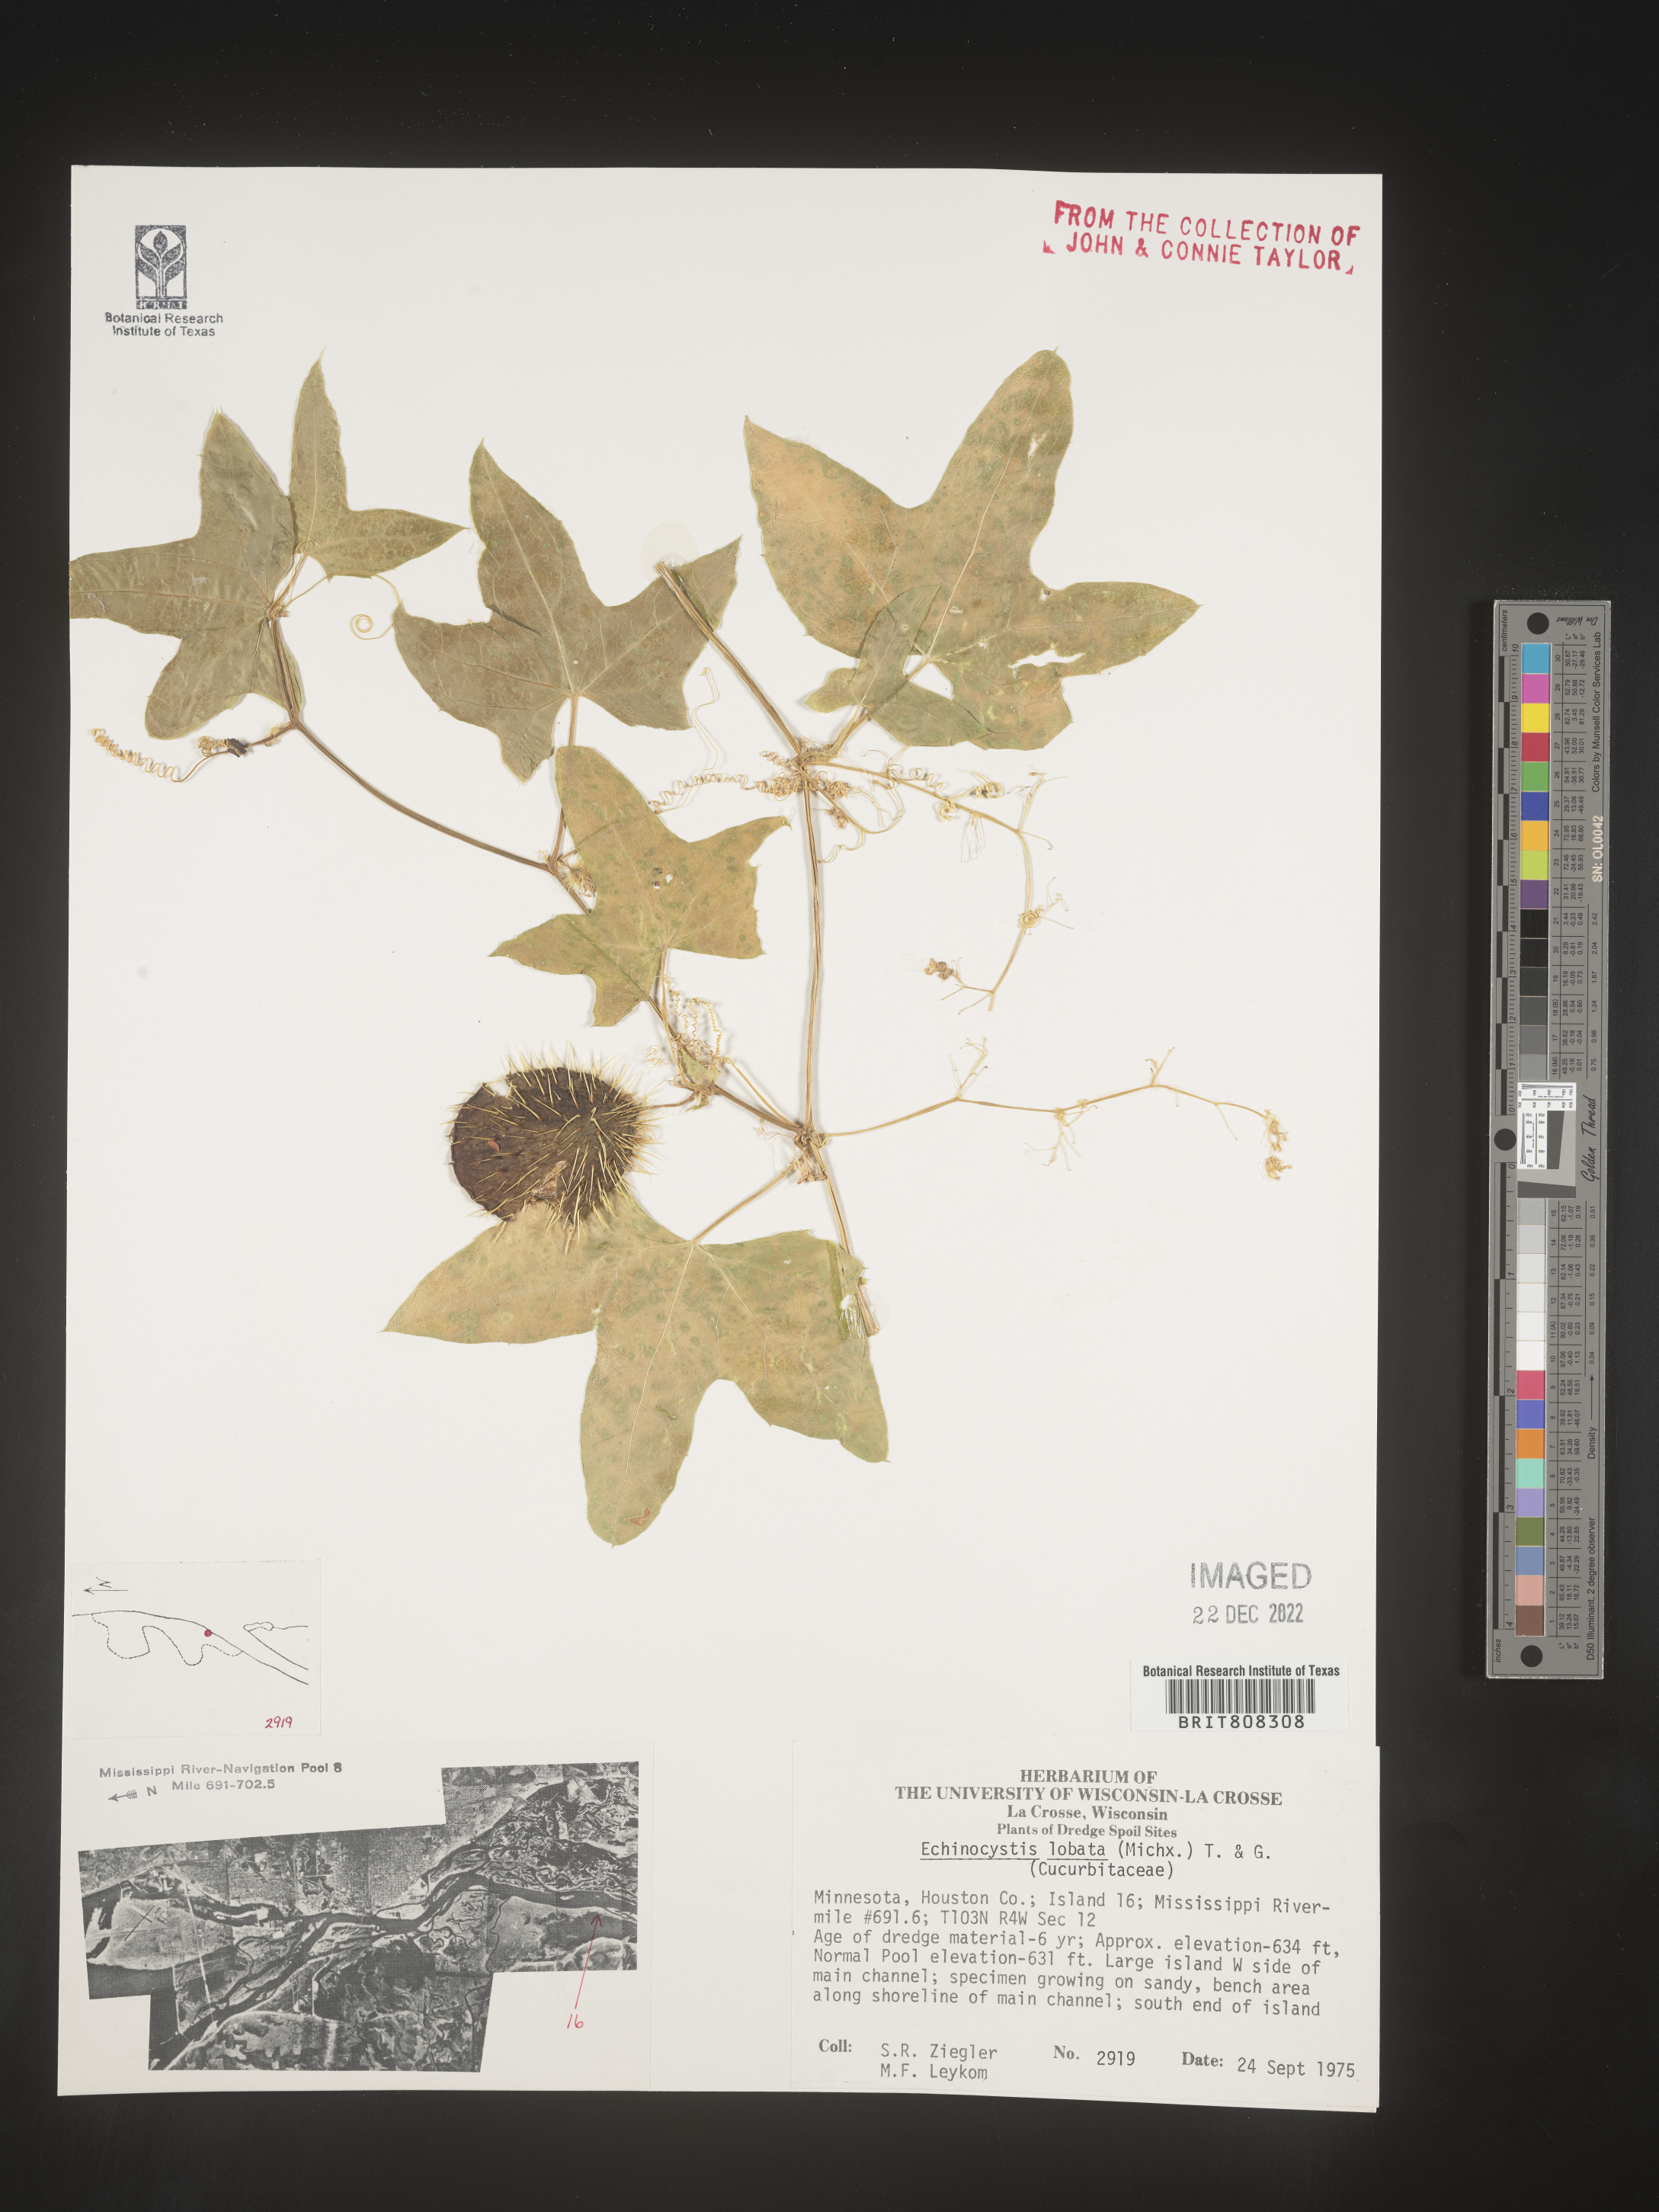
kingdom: Plantae
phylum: Tracheophyta
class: Magnoliopsida
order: Cucurbitales
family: Cucurbitaceae
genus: Echinocystis
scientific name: Echinocystis
